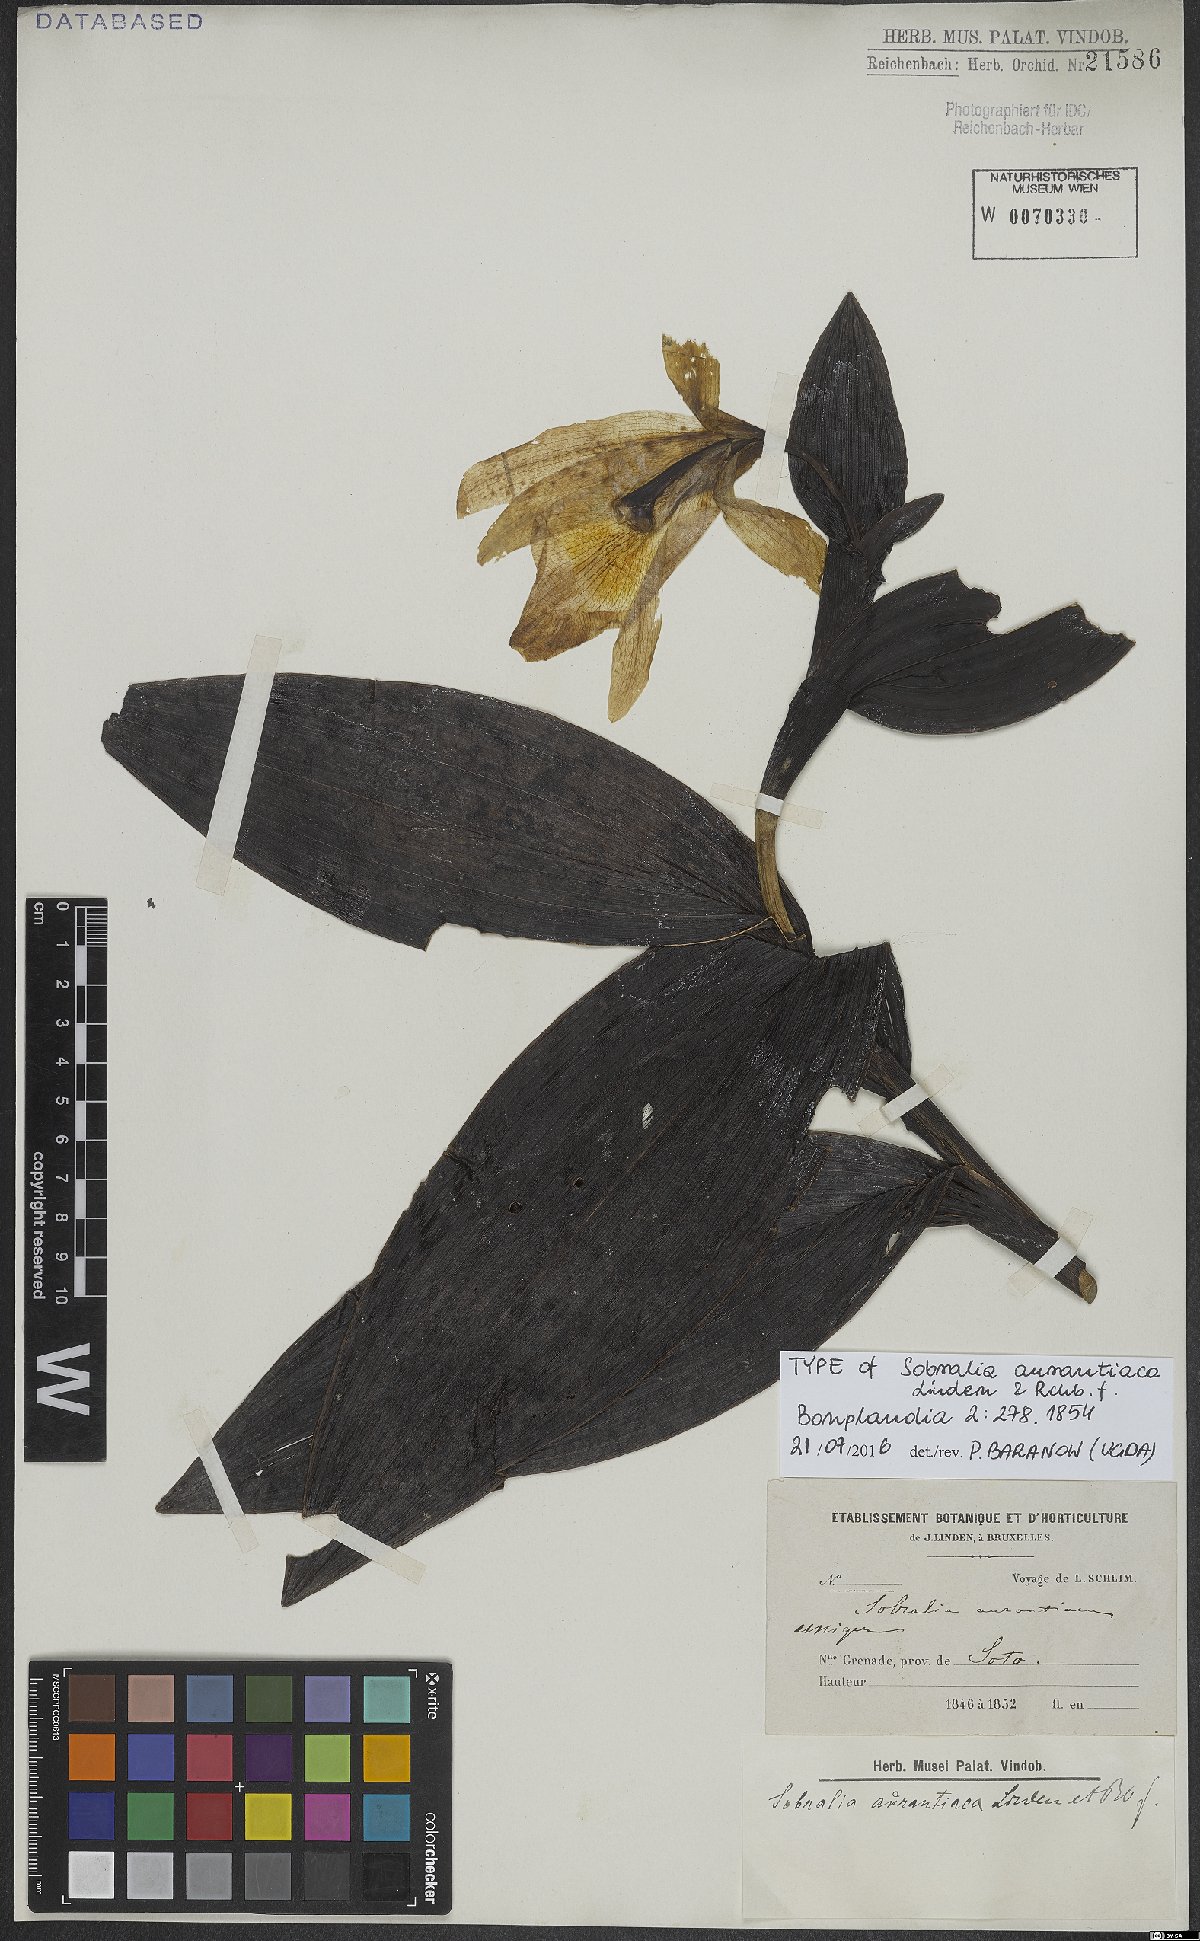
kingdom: Plantae
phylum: Tracheophyta
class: Liliopsida
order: Asparagales
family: Orchidaceae
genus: Sobralia
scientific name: Sobralia macrophylla
